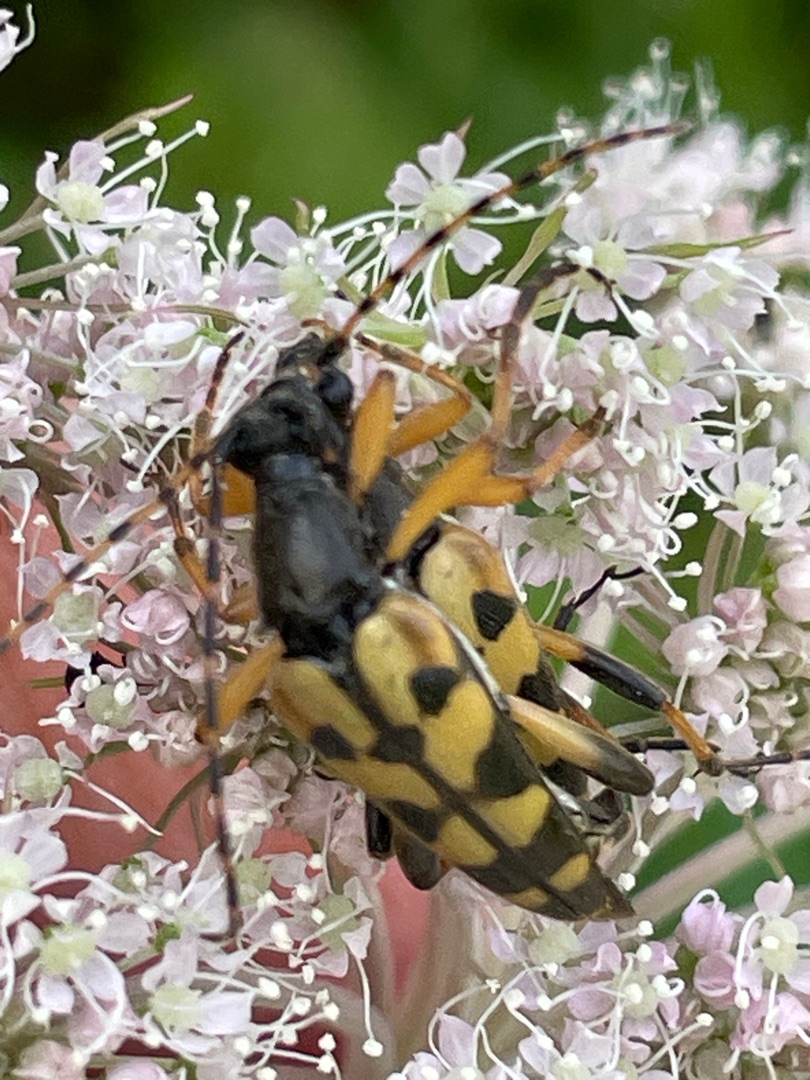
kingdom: Animalia
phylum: Arthropoda
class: Insecta
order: Coleoptera
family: Cerambycidae
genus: Rutpela
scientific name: Rutpela maculata
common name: Sydlig blomsterbuk
